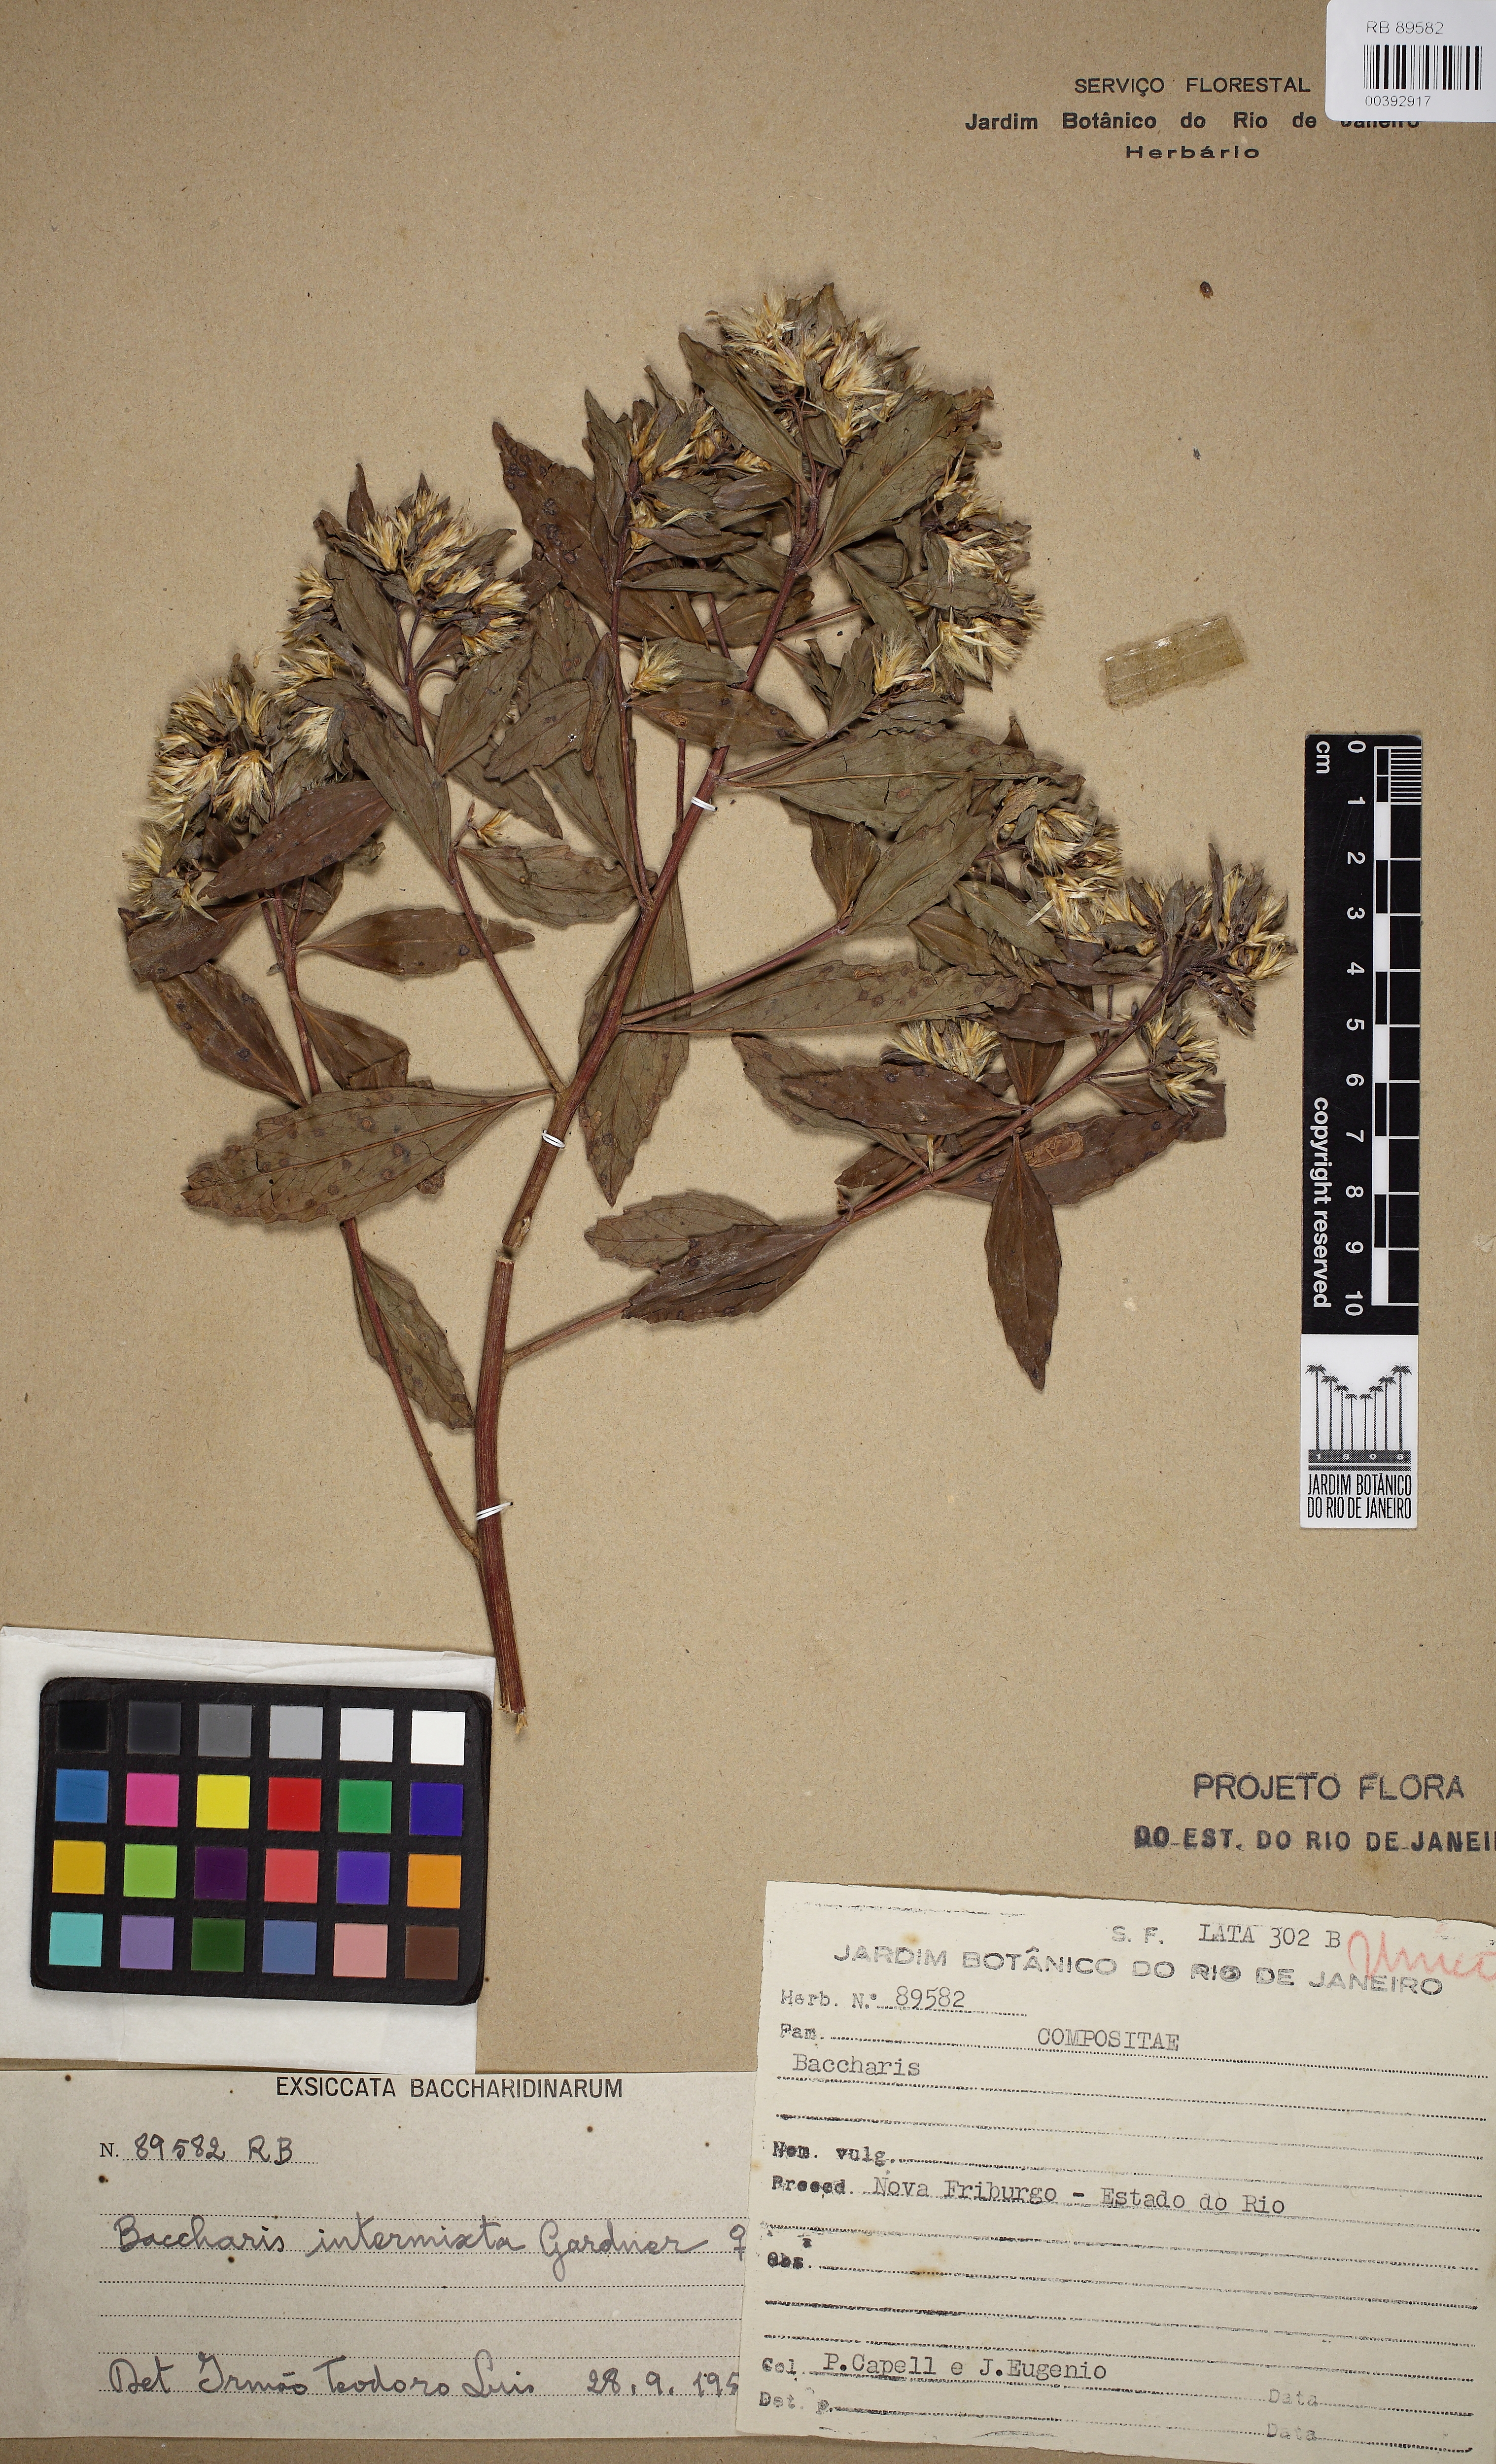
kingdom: Plantae
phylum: Tracheophyta
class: Magnoliopsida
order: Asterales
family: Asteraceae
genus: Baccharis
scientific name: Baccharis intermixta
